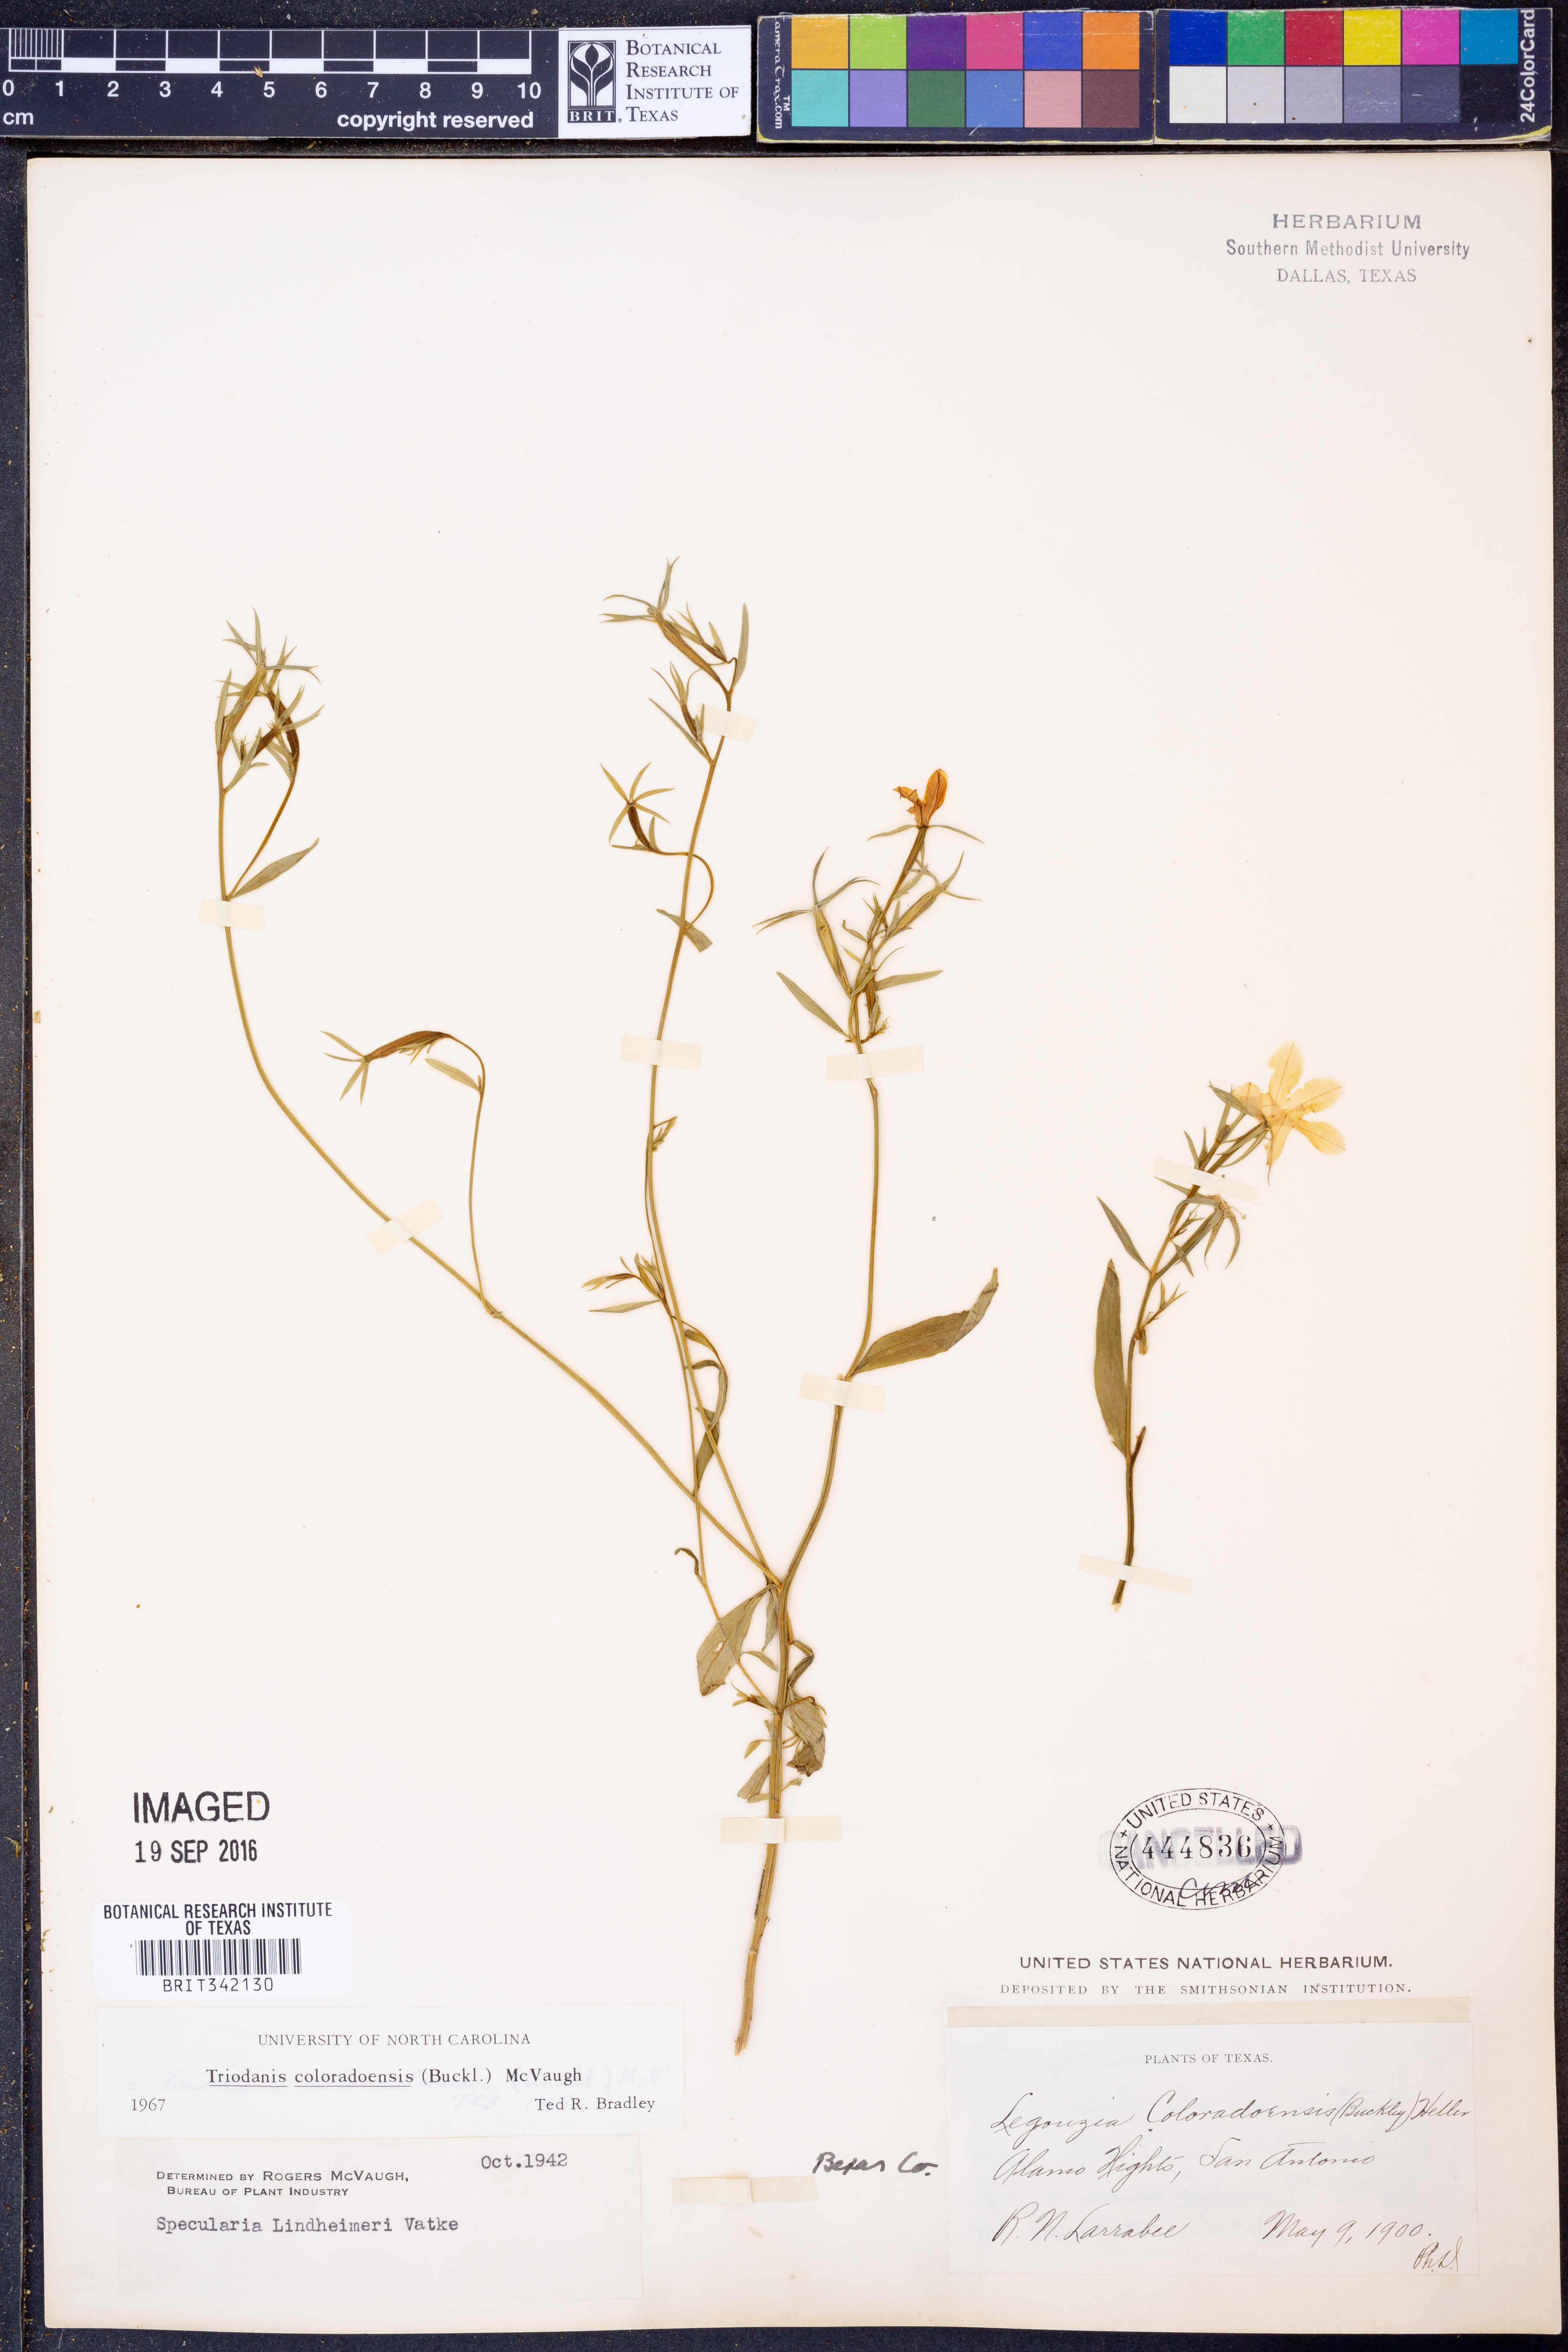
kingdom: Plantae
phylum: Tracheophyta
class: Magnoliopsida
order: Asterales
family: Campanulaceae
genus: Triodanis
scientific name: Triodanis coloradoensis
